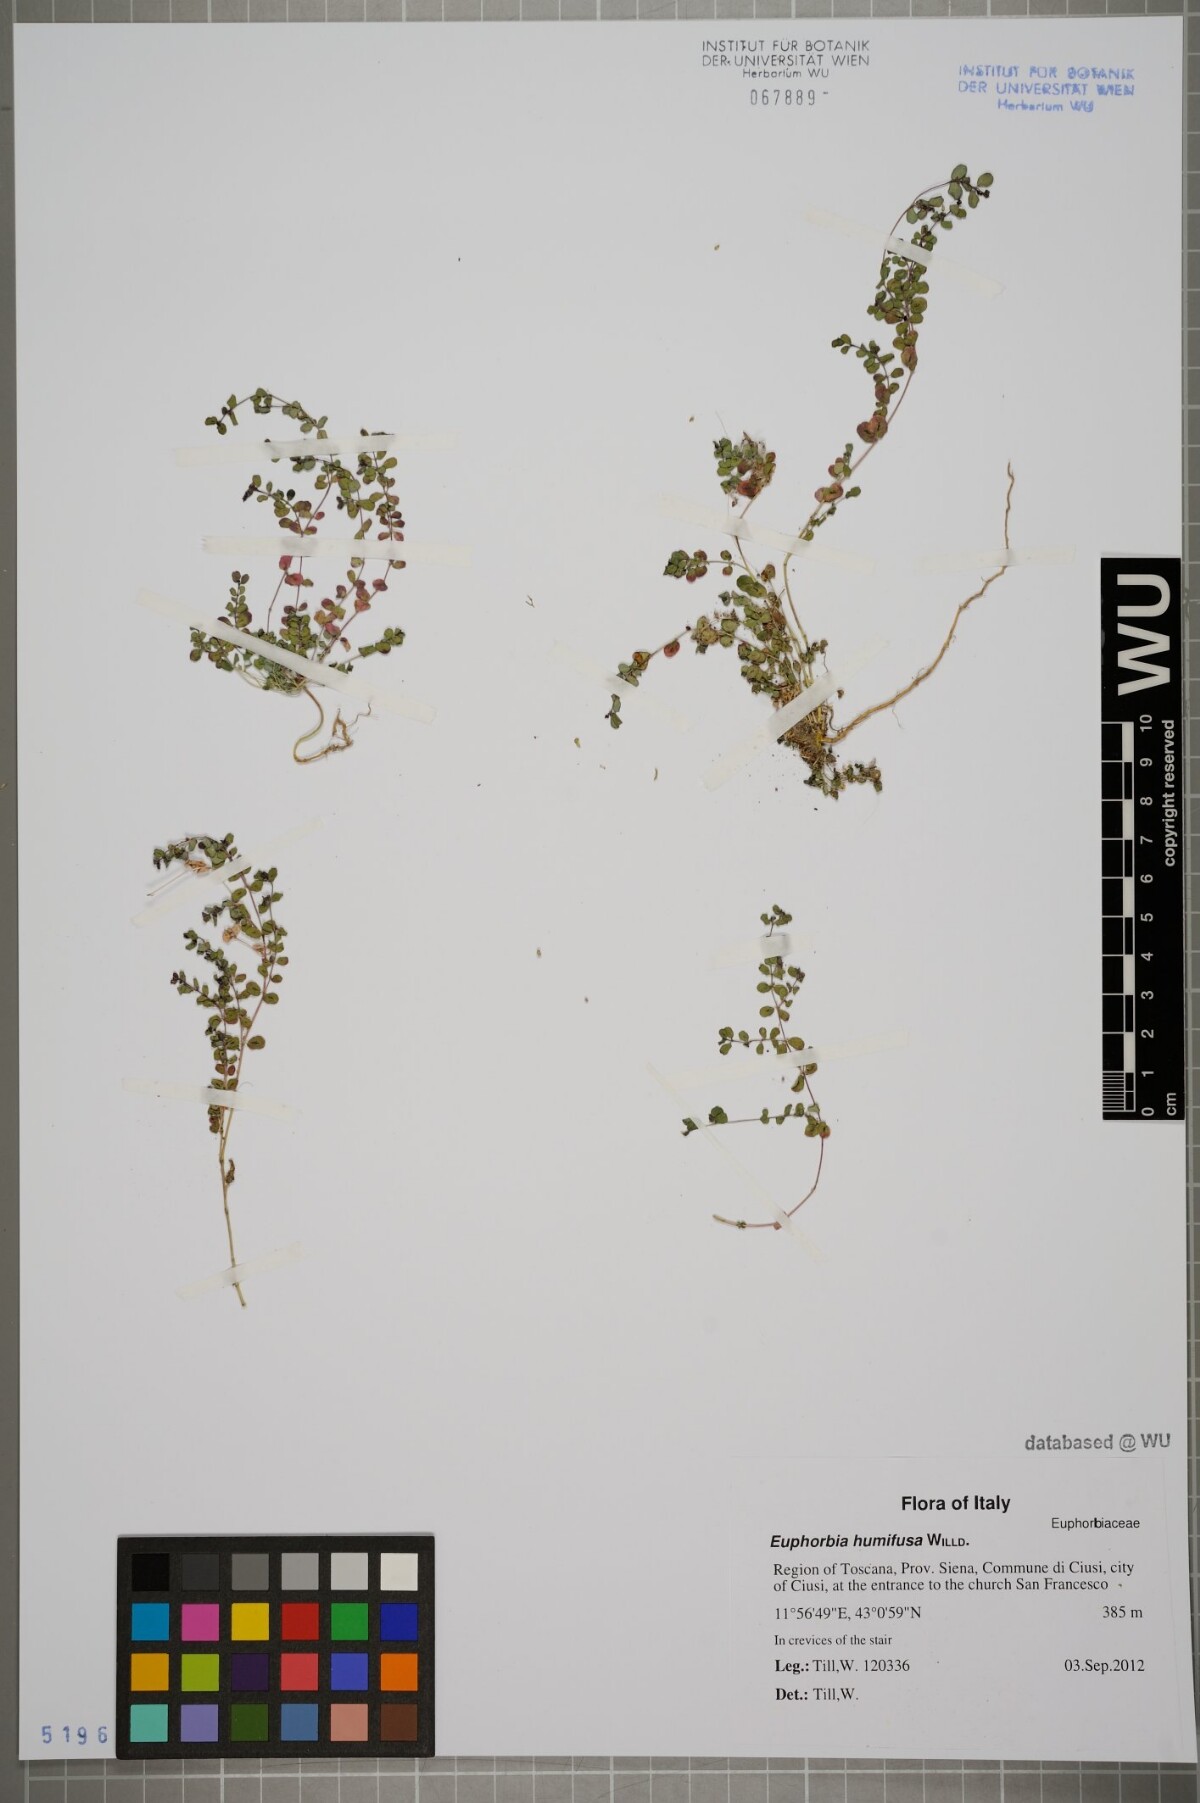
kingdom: Plantae
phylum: Tracheophyta
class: Magnoliopsida
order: Malpighiales
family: Euphorbiaceae
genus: Euphorbia
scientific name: Euphorbia humifusa
